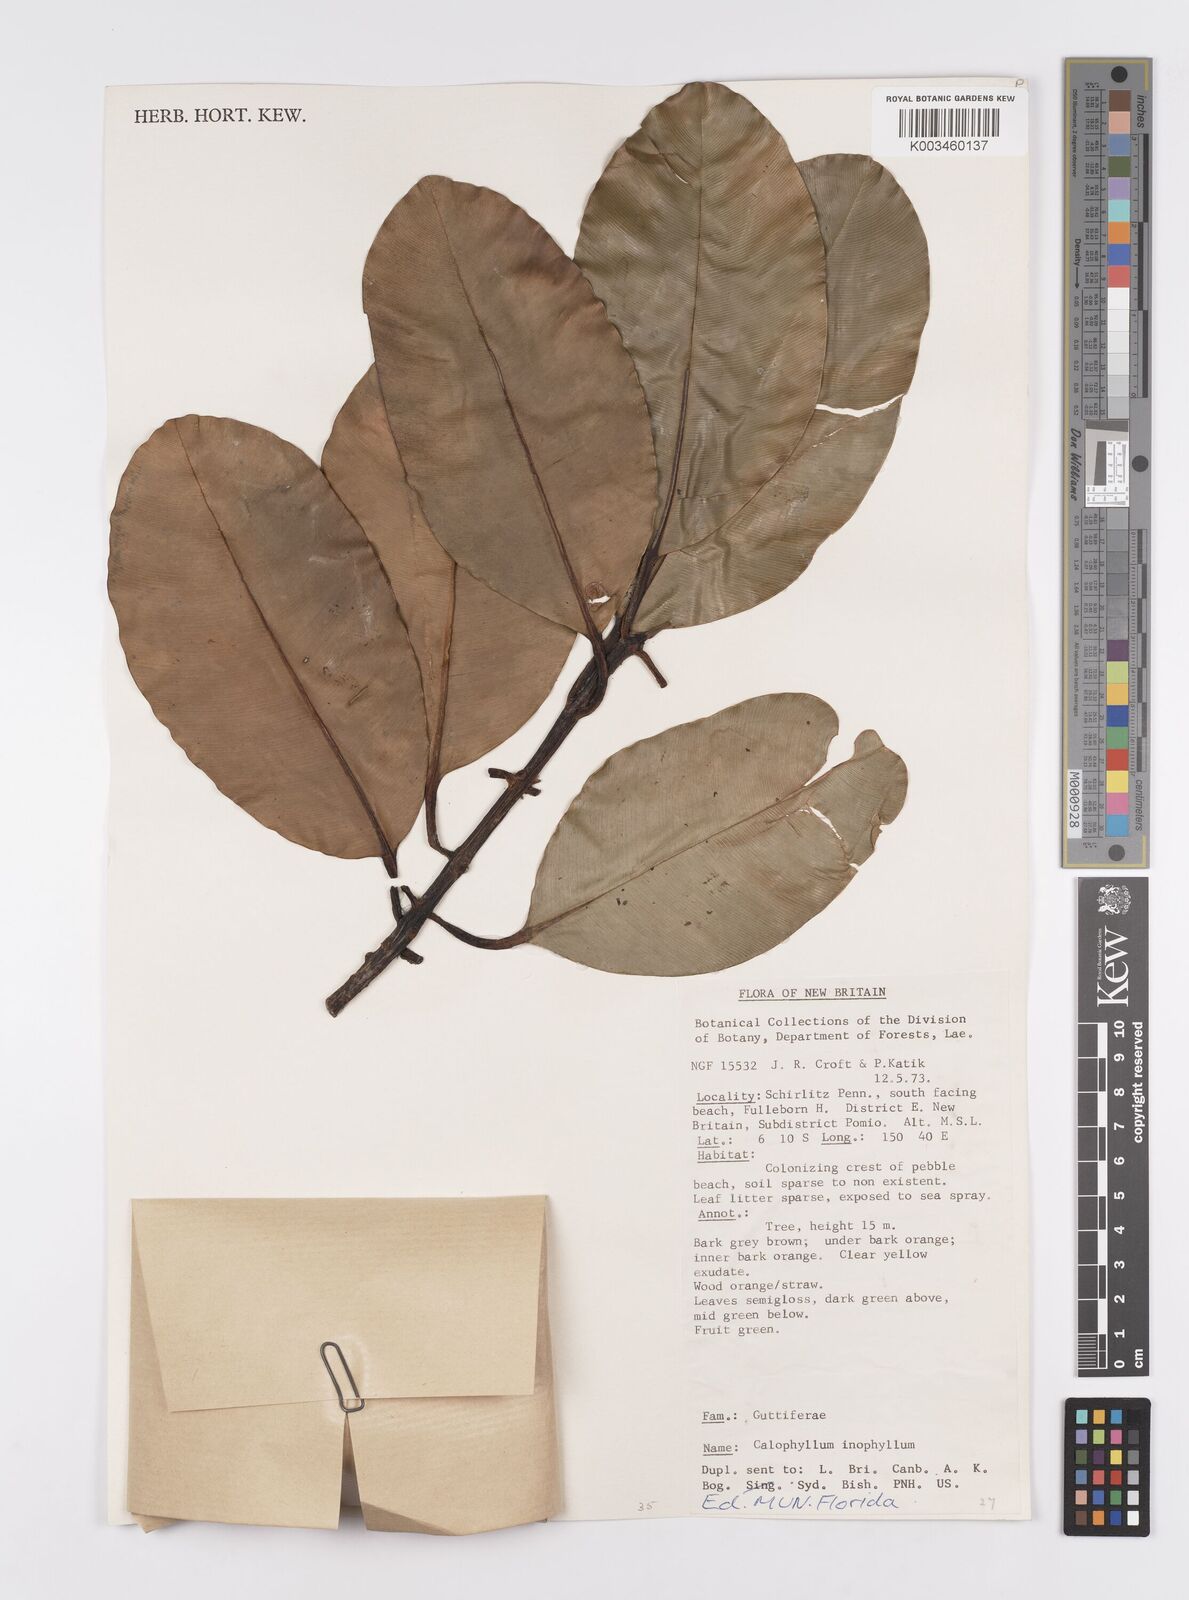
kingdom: Plantae
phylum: Tracheophyta
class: Magnoliopsida
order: Malpighiales
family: Calophyllaceae
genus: Calophyllum
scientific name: Calophyllum inophyllum
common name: Alexandrian laurel
